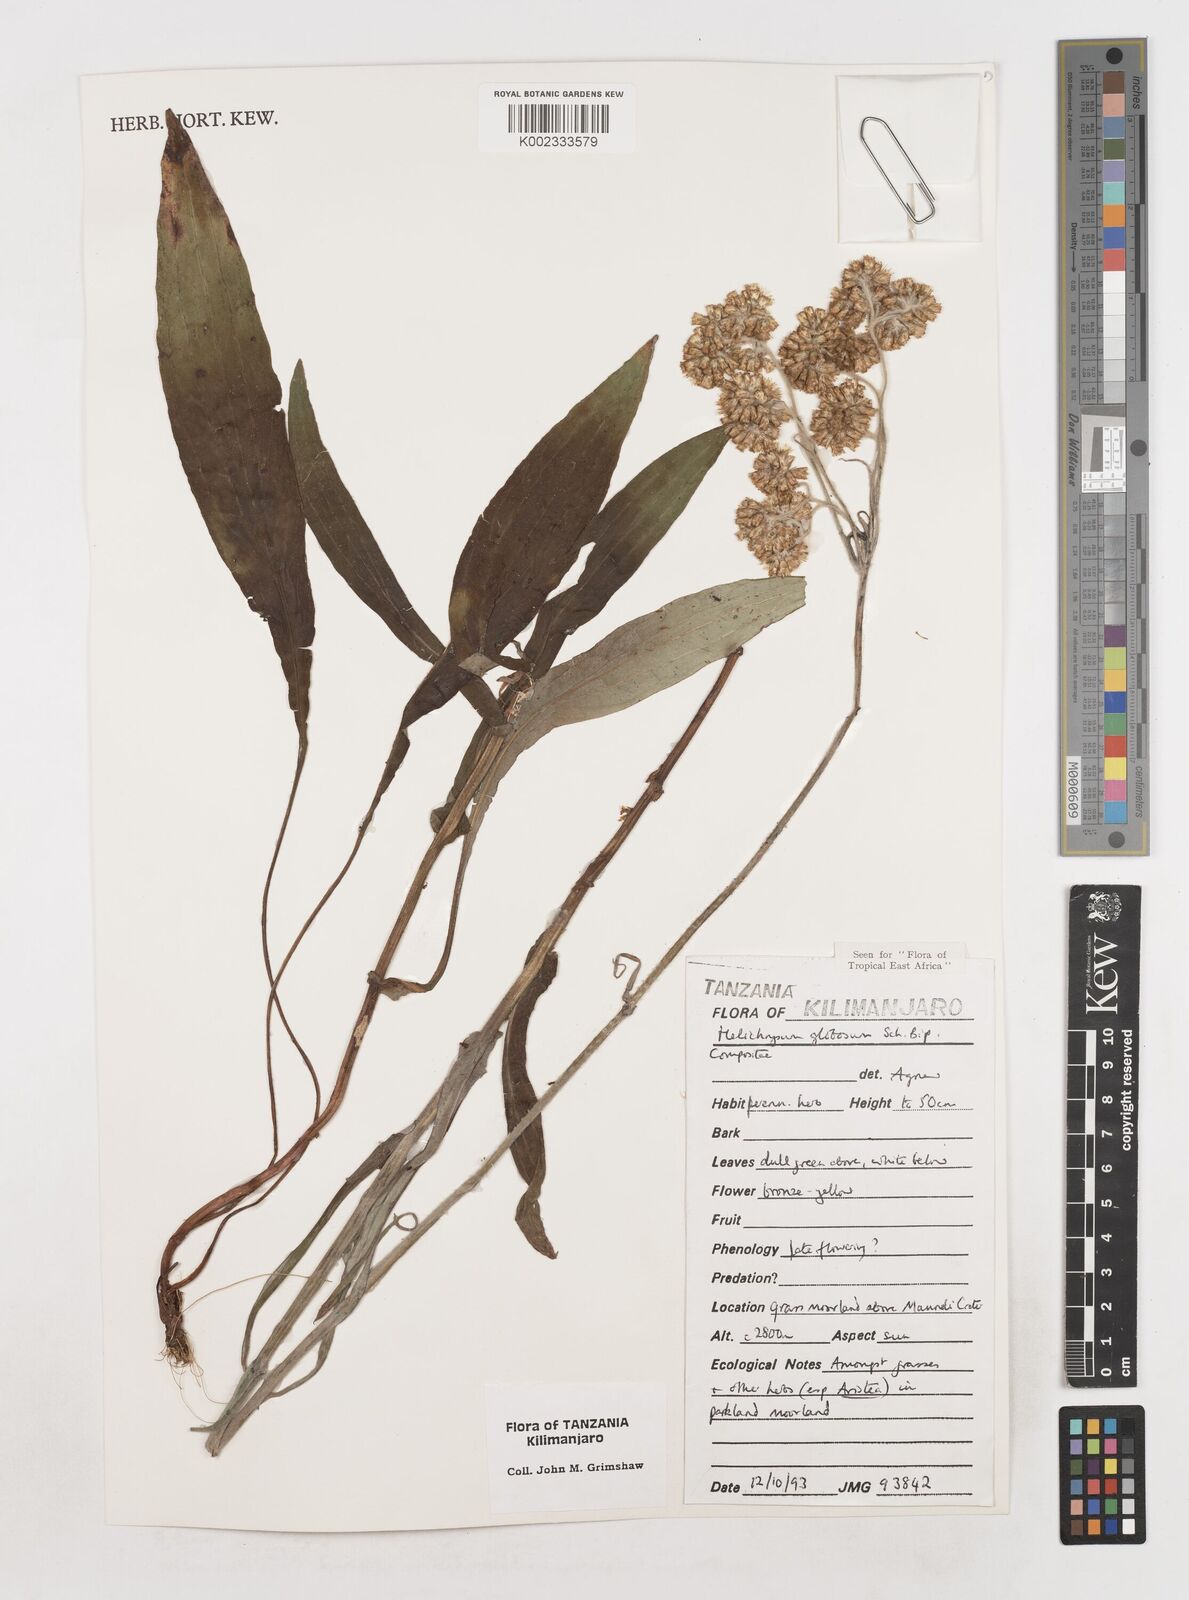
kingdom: Plantae
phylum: Tracheophyta
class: Magnoliopsida
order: Asterales
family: Asteraceae
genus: Helichrysum
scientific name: Helichrysum globosum
